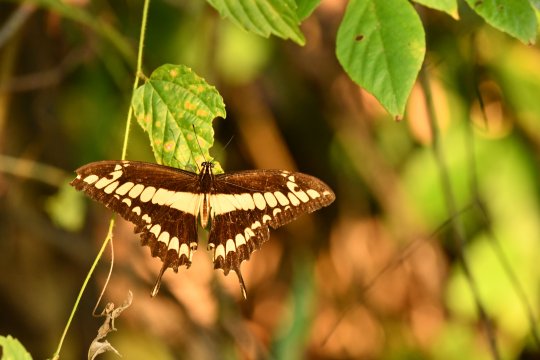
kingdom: Animalia
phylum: Arthropoda
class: Insecta
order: Lepidoptera
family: Papilionidae
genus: Papilio
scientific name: Papilio thoas
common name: Thoas Swallowtail
